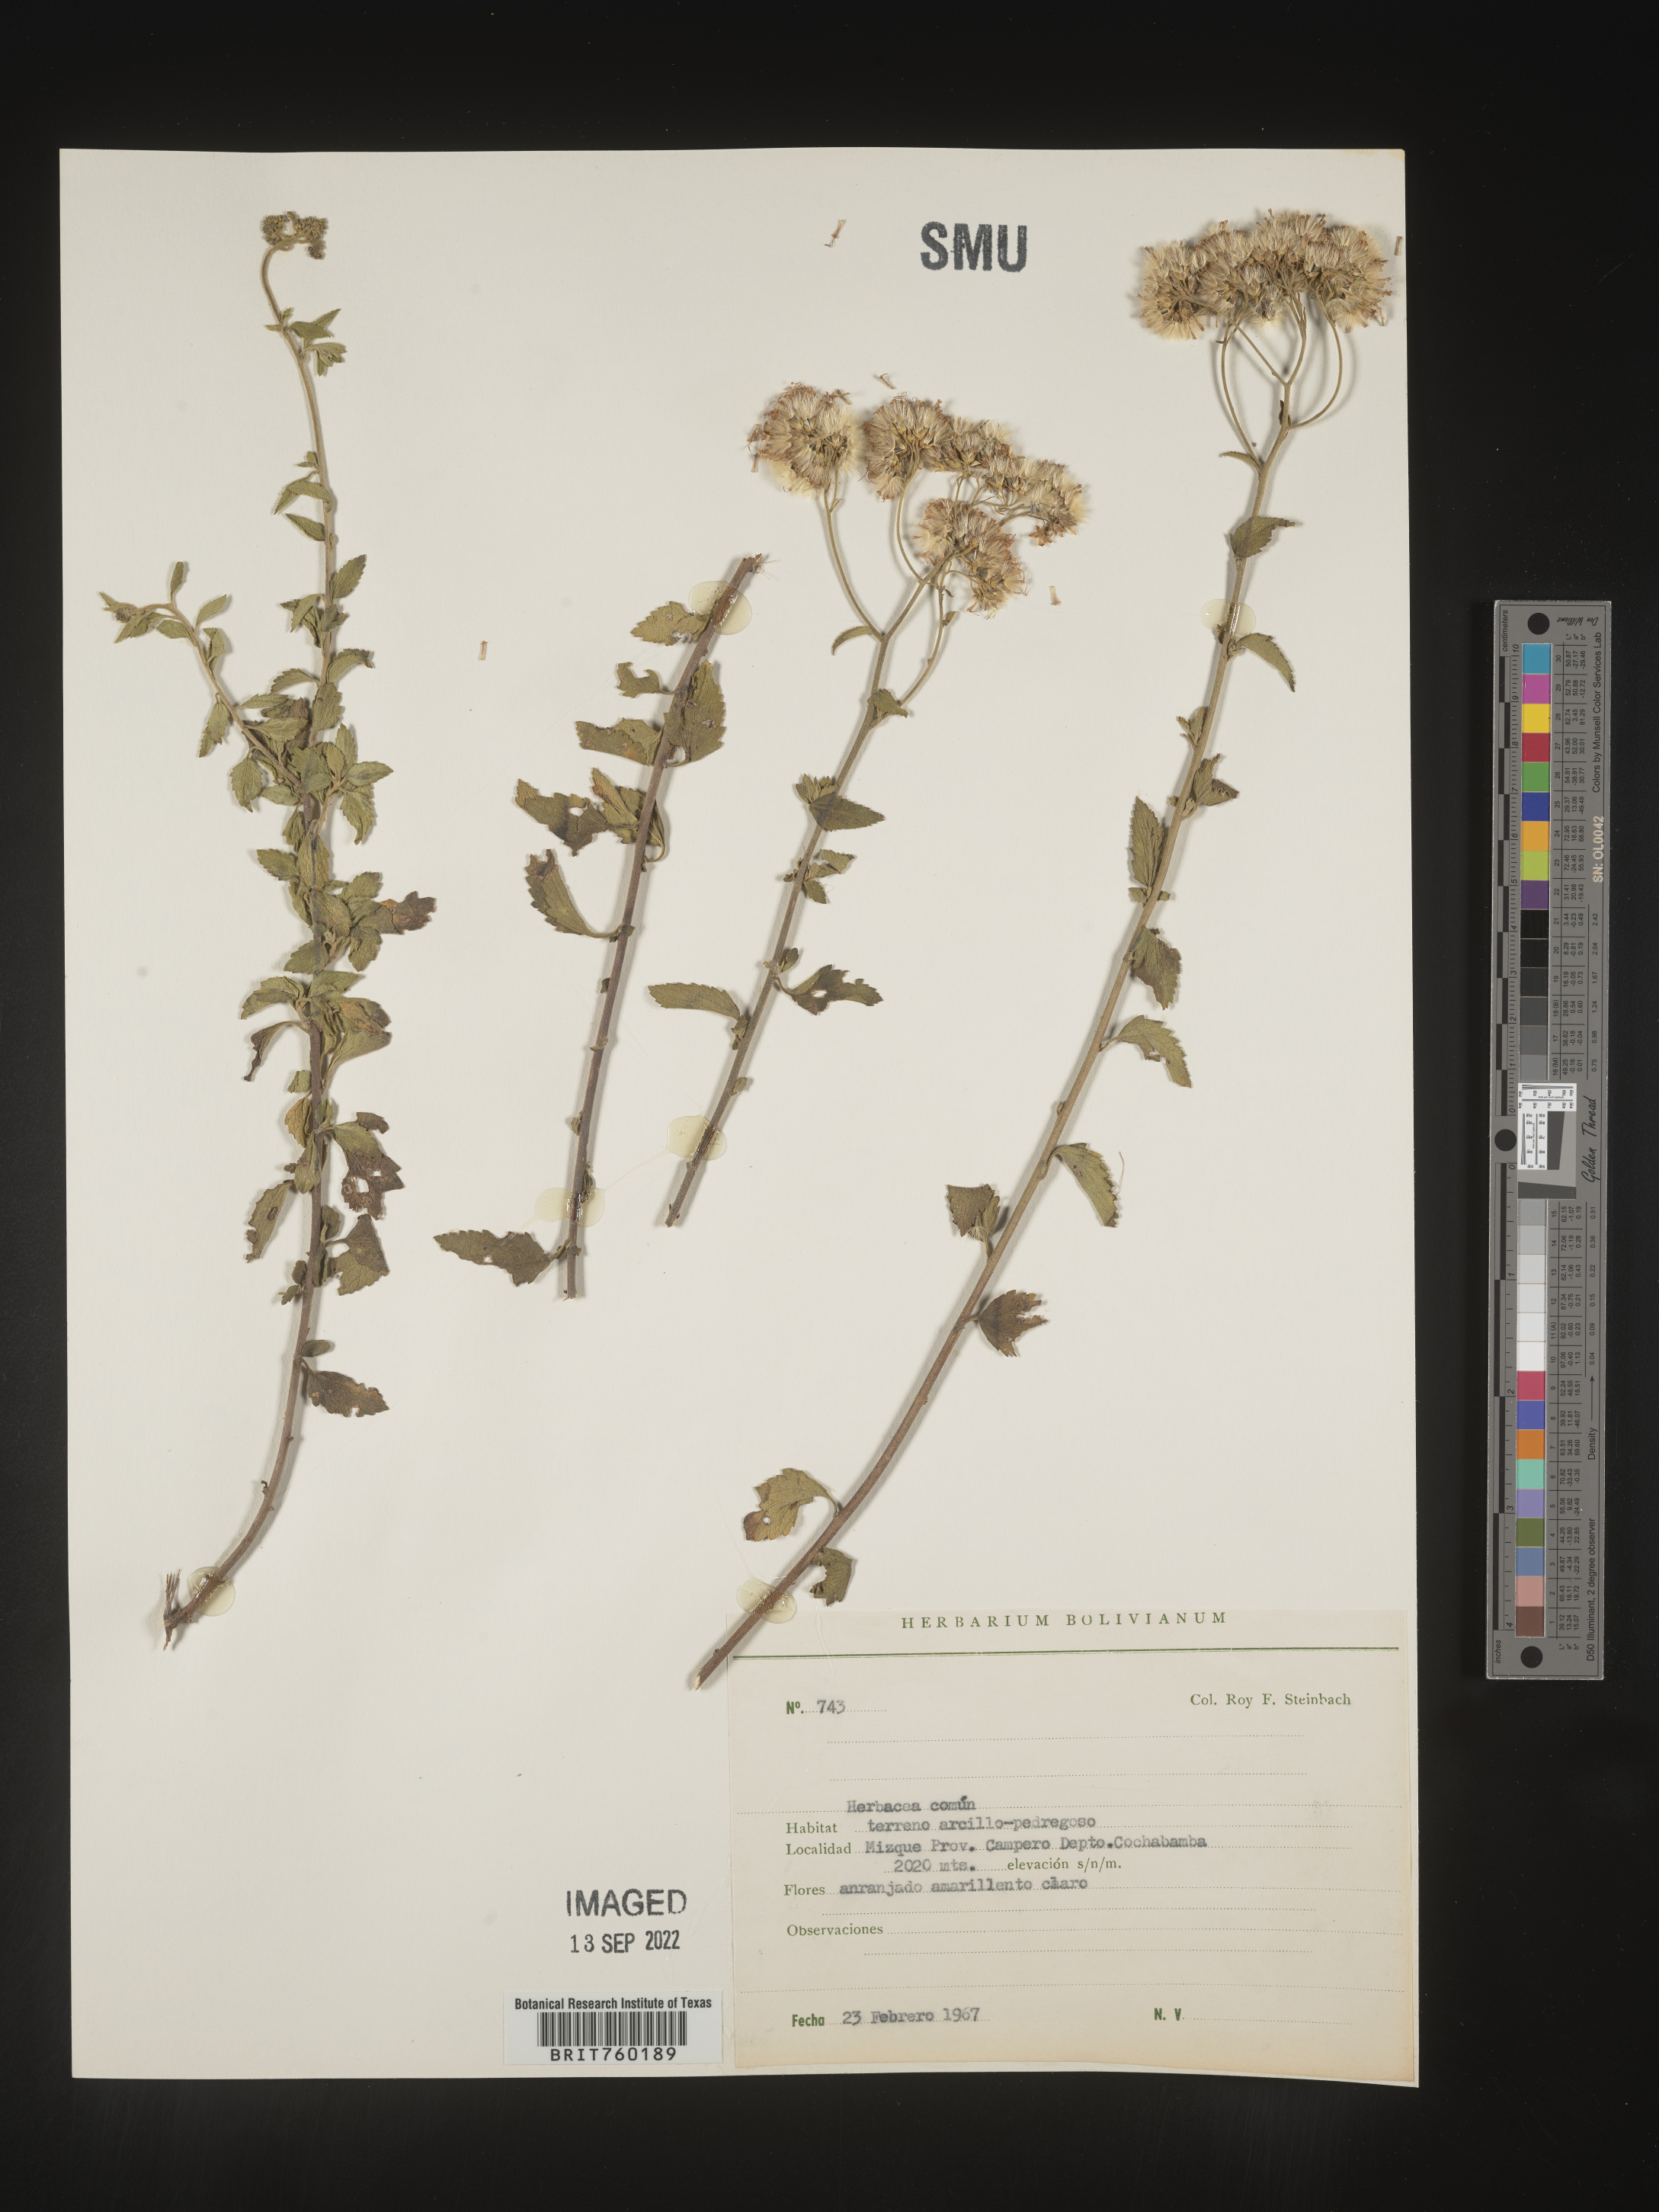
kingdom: Plantae
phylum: Tracheophyta
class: Magnoliopsida
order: Asterales
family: Asteraceae
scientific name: Asteraceae
